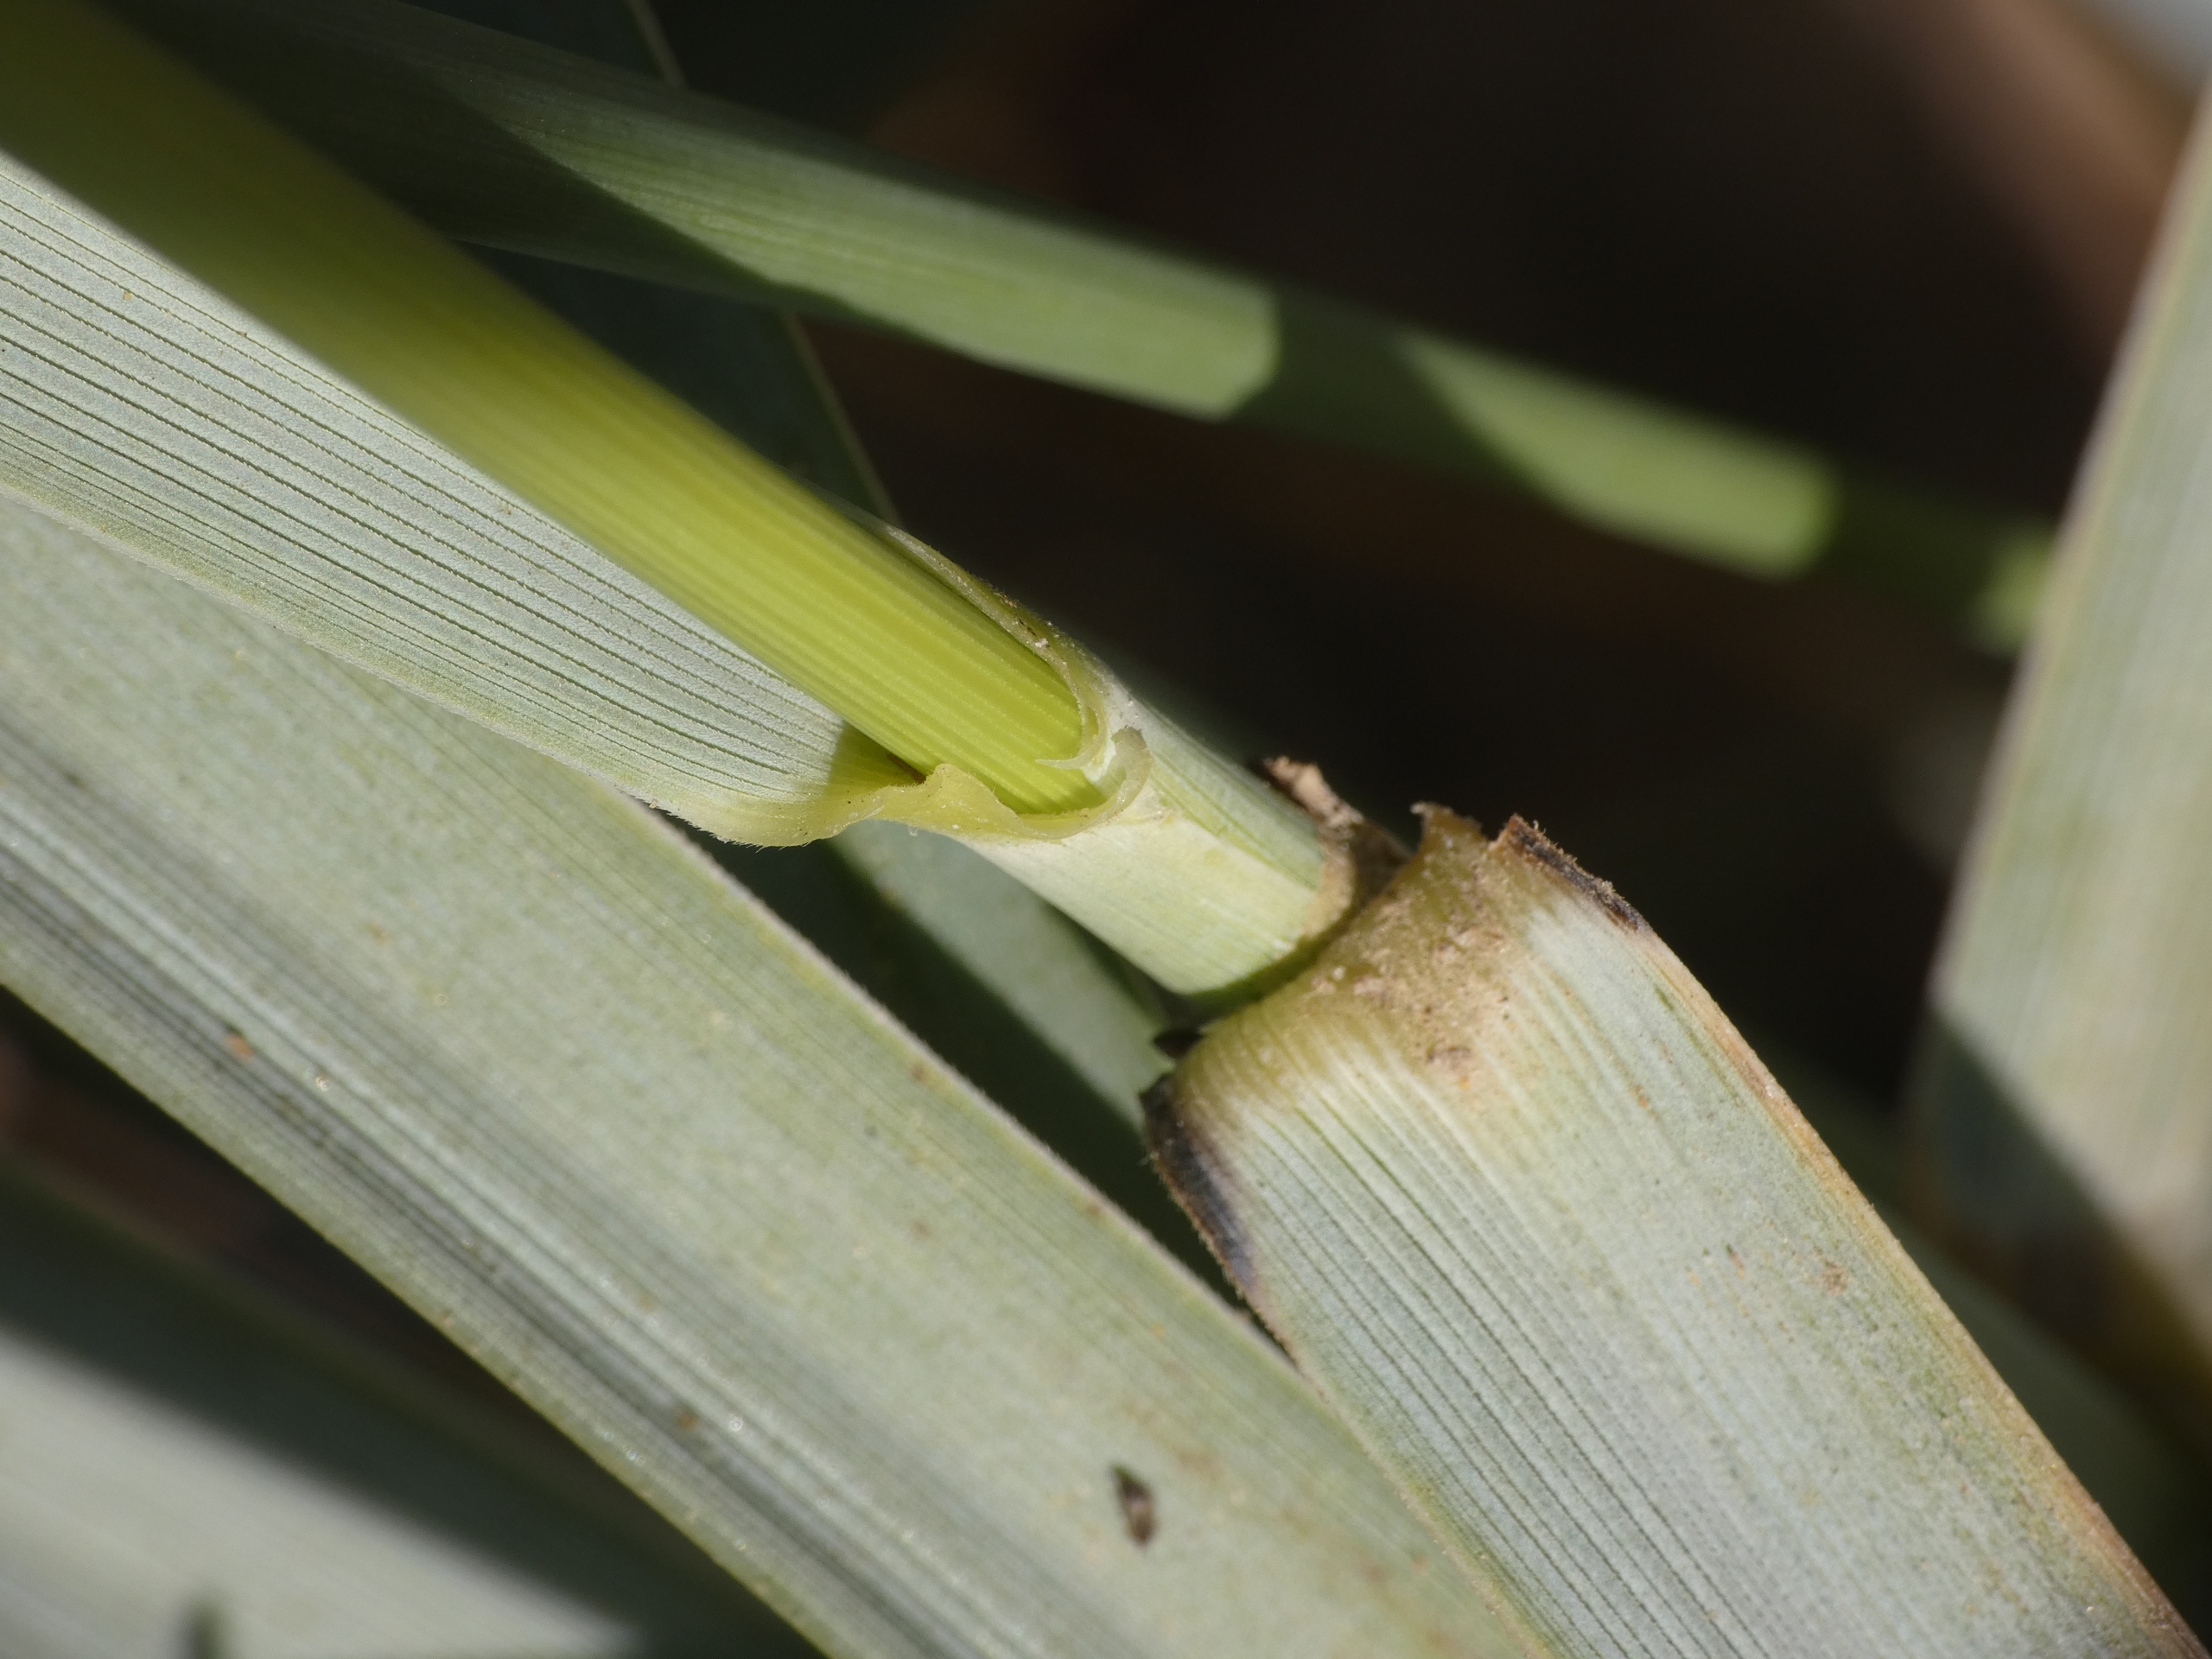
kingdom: Plantae
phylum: Tracheophyta
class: Liliopsida
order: Poales
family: Poaceae
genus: Leymus
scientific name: Leymus arenarius
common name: Marehalm
